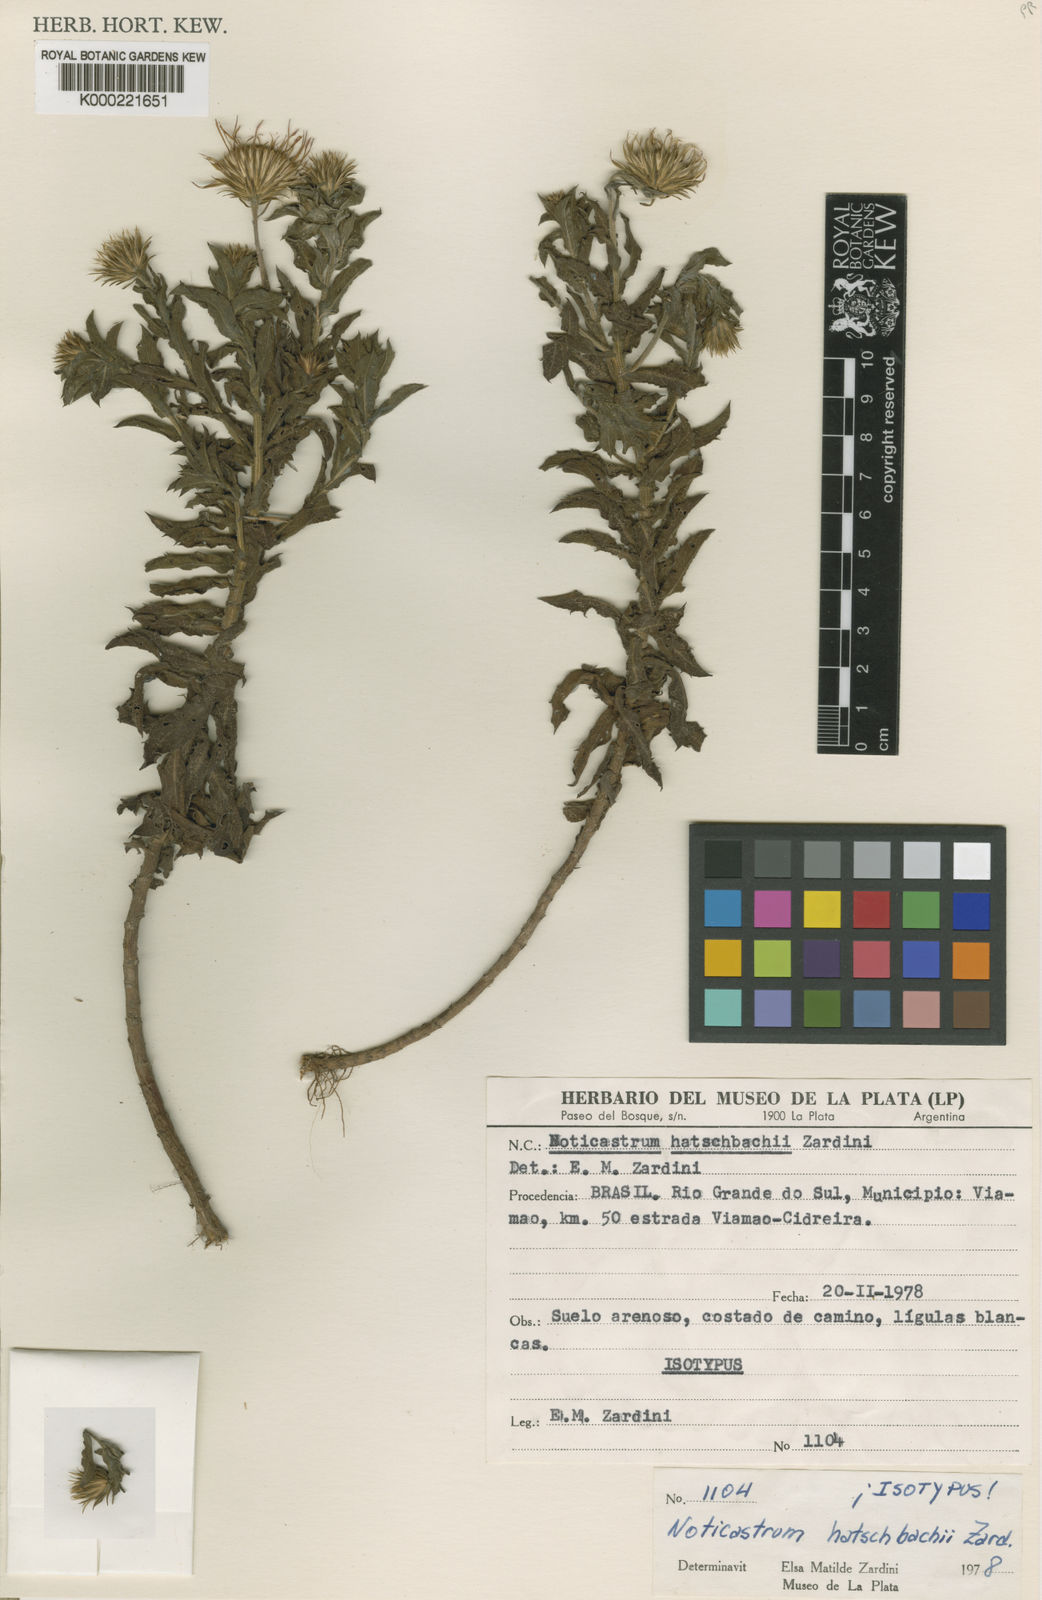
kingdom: Plantae
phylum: Tracheophyta
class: Magnoliopsida
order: Asterales
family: Asteraceae
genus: Aster
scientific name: Aster
